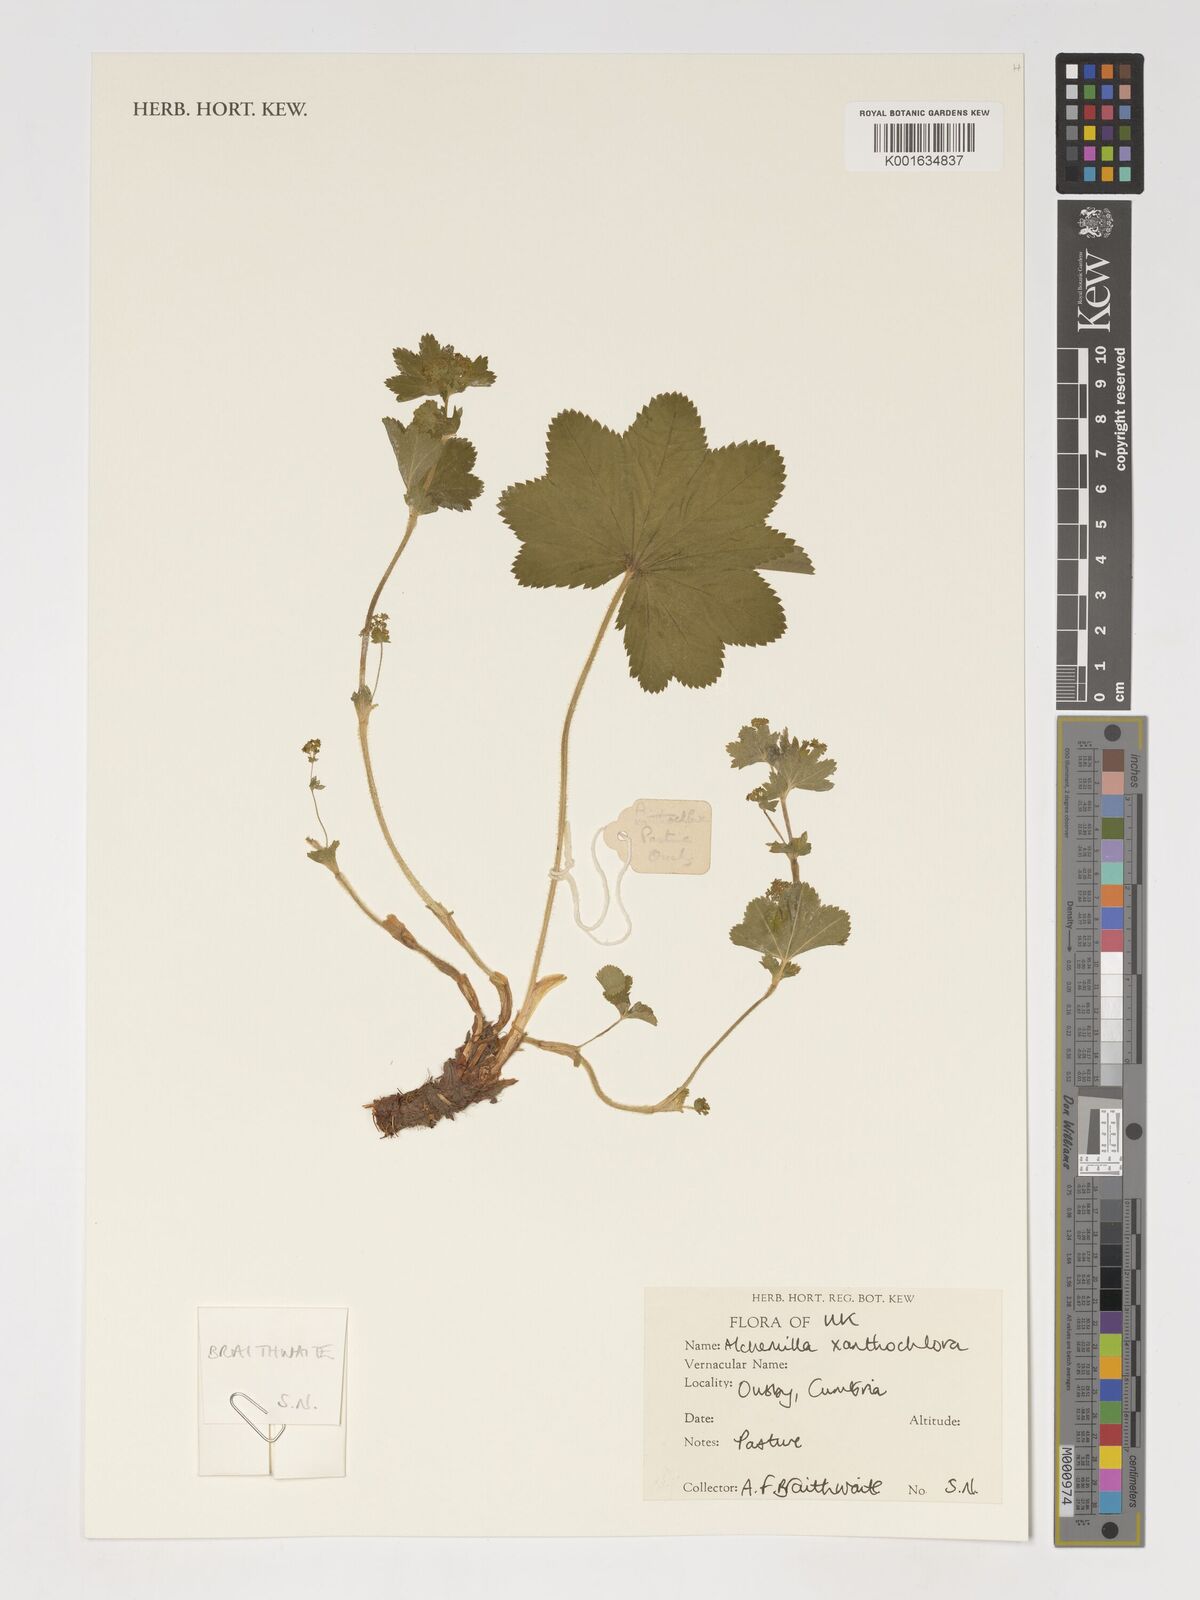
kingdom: Plantae
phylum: Tracheophyta
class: Magnoliopsida
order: Rosales
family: Rosaceae
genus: Alchemilla
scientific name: Alchemilla xanthochlora
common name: Intermediate lady's-mantle
